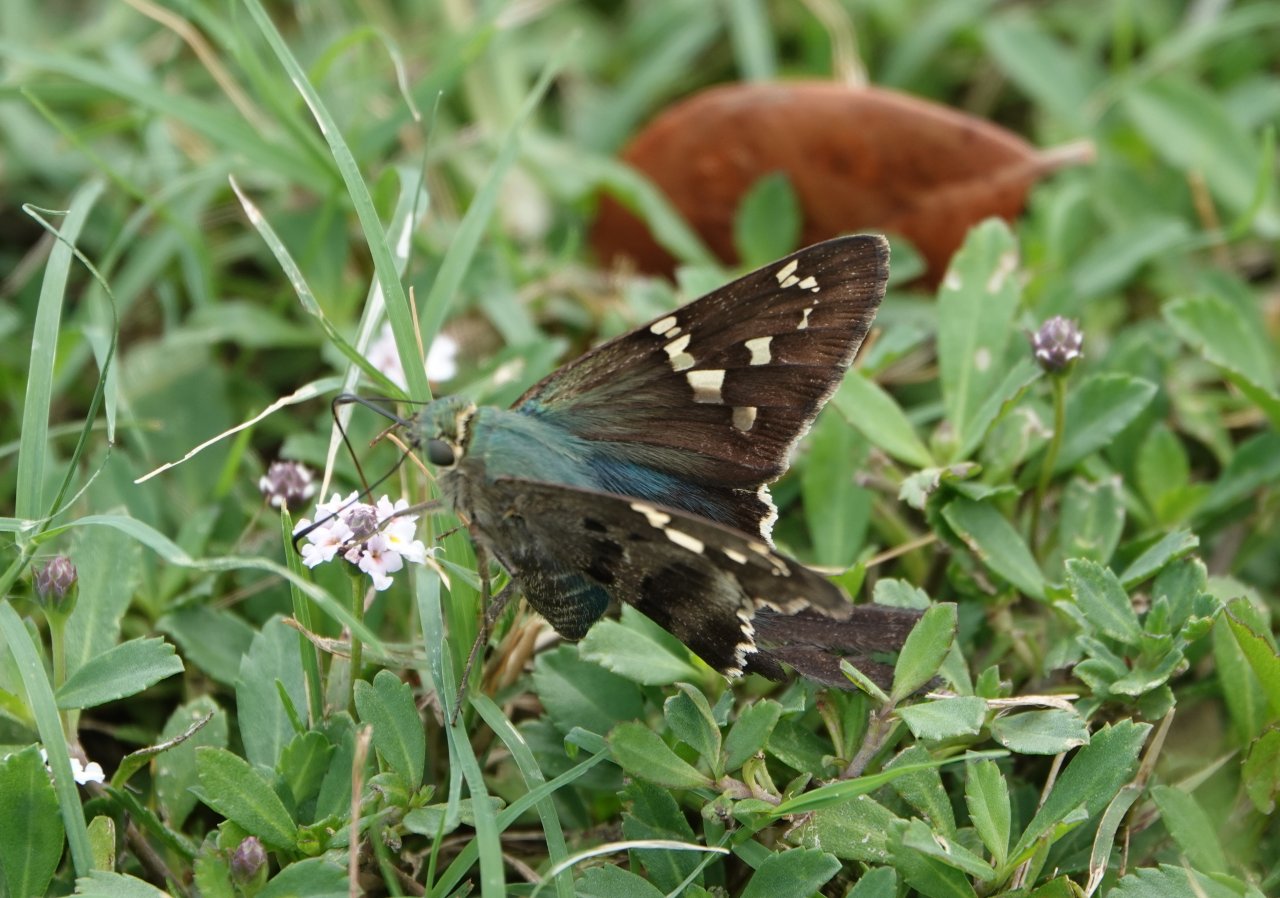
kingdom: Animalia
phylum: Arthropoda
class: Insecta
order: Lepidoptera
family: Hesperiidae
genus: Urbanus
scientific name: Urbanus proteus
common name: Long-tailed Skipper
